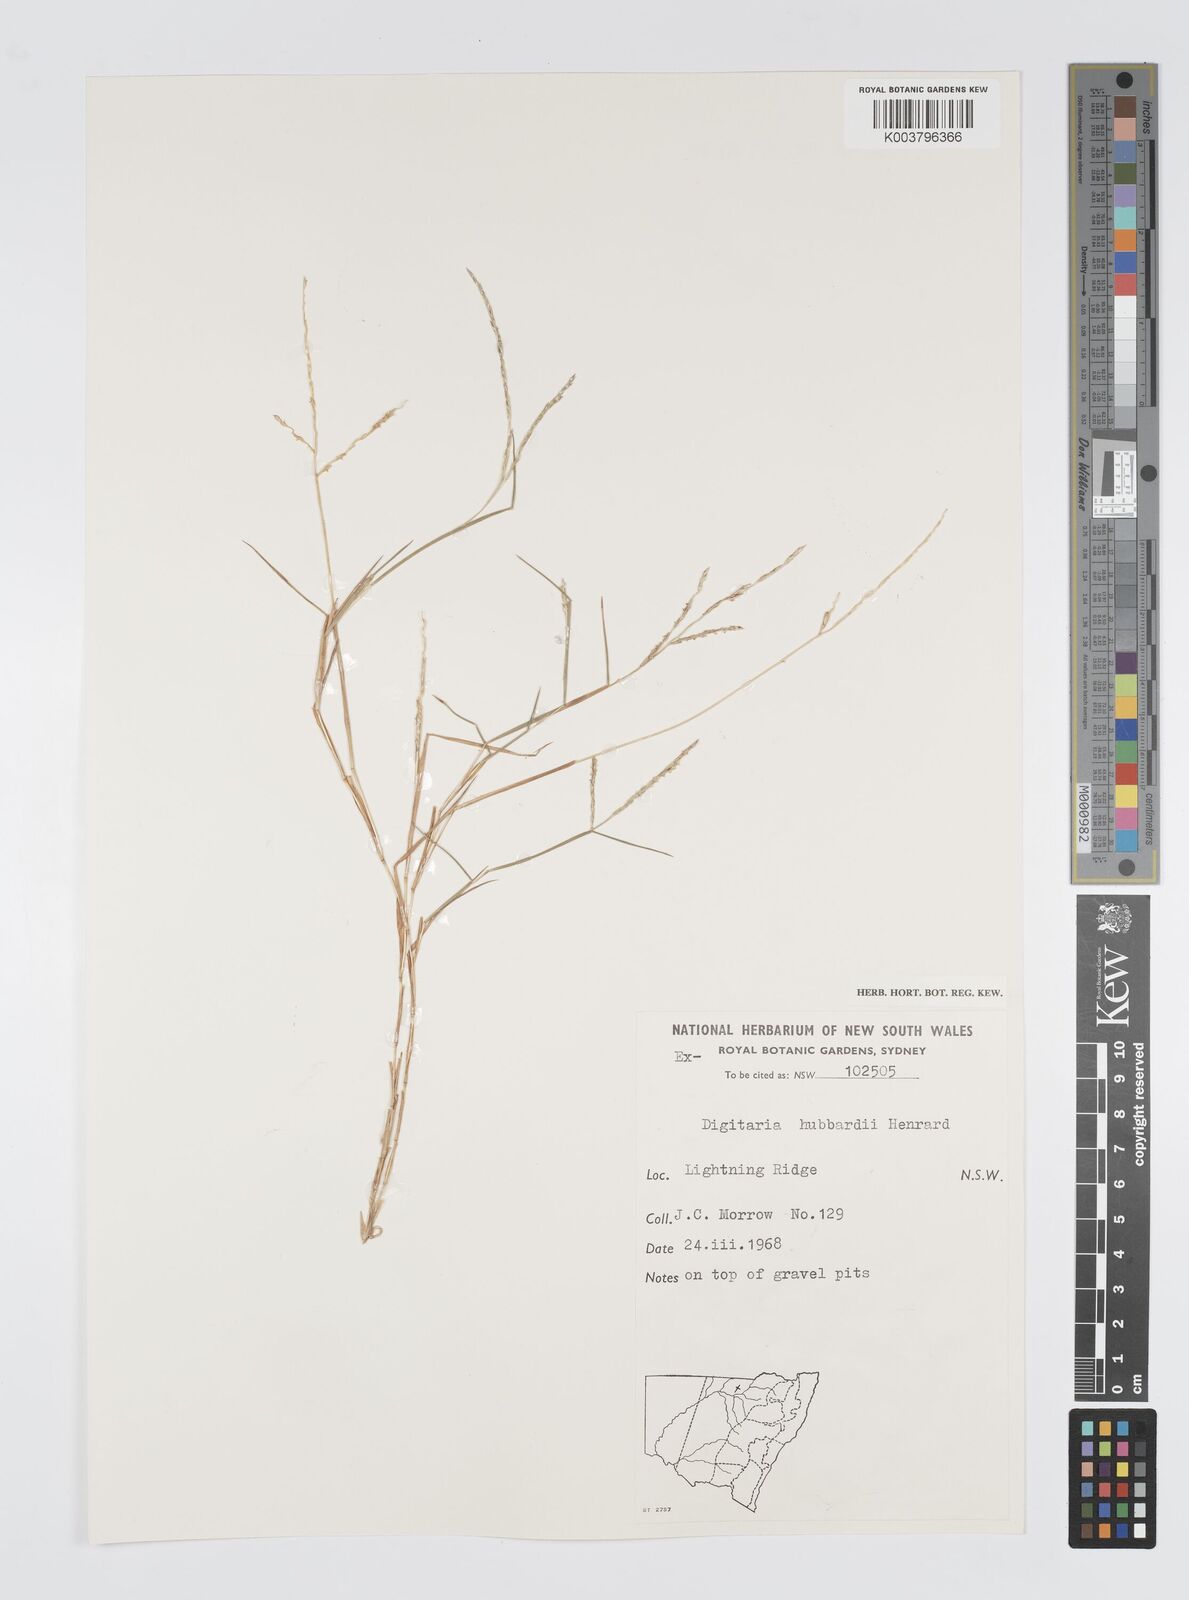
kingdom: Plantae
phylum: Tracheophyta
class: Liliopsida
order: Poales
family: Poaceae
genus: Digitaria
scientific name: Digitaria hubbardii
